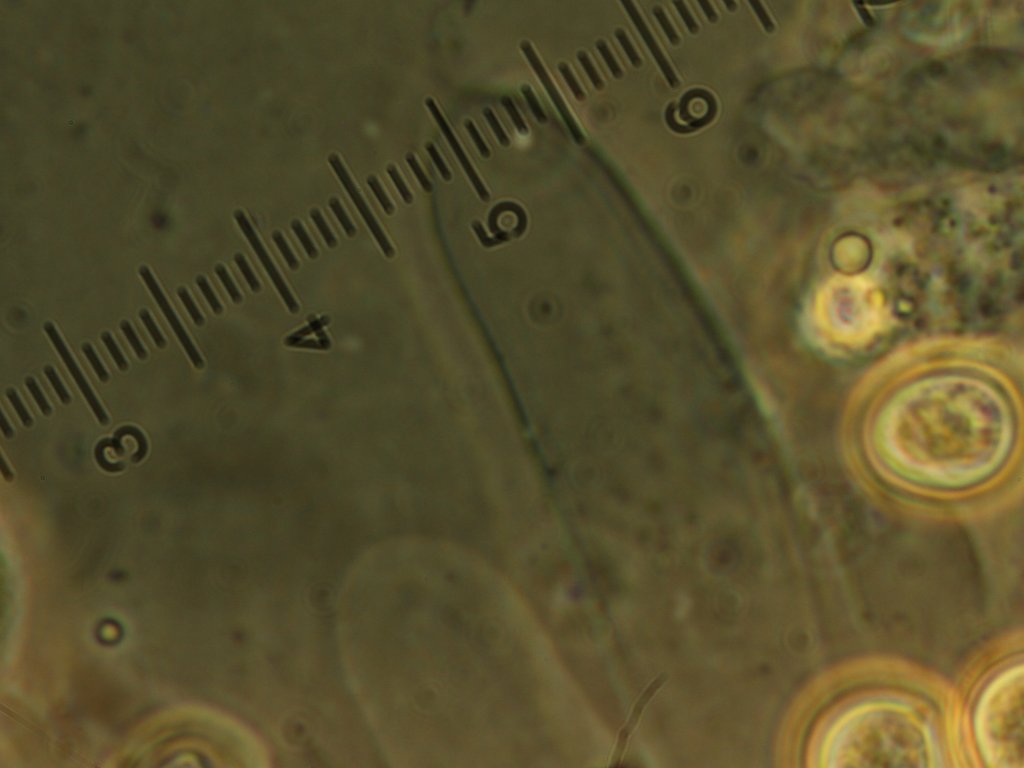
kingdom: Fungi
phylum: Basidiomycota
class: Agaricomycetes
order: Agaricales
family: Pluteaceae
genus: Pluteus
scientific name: Pluteus griseoluridus
